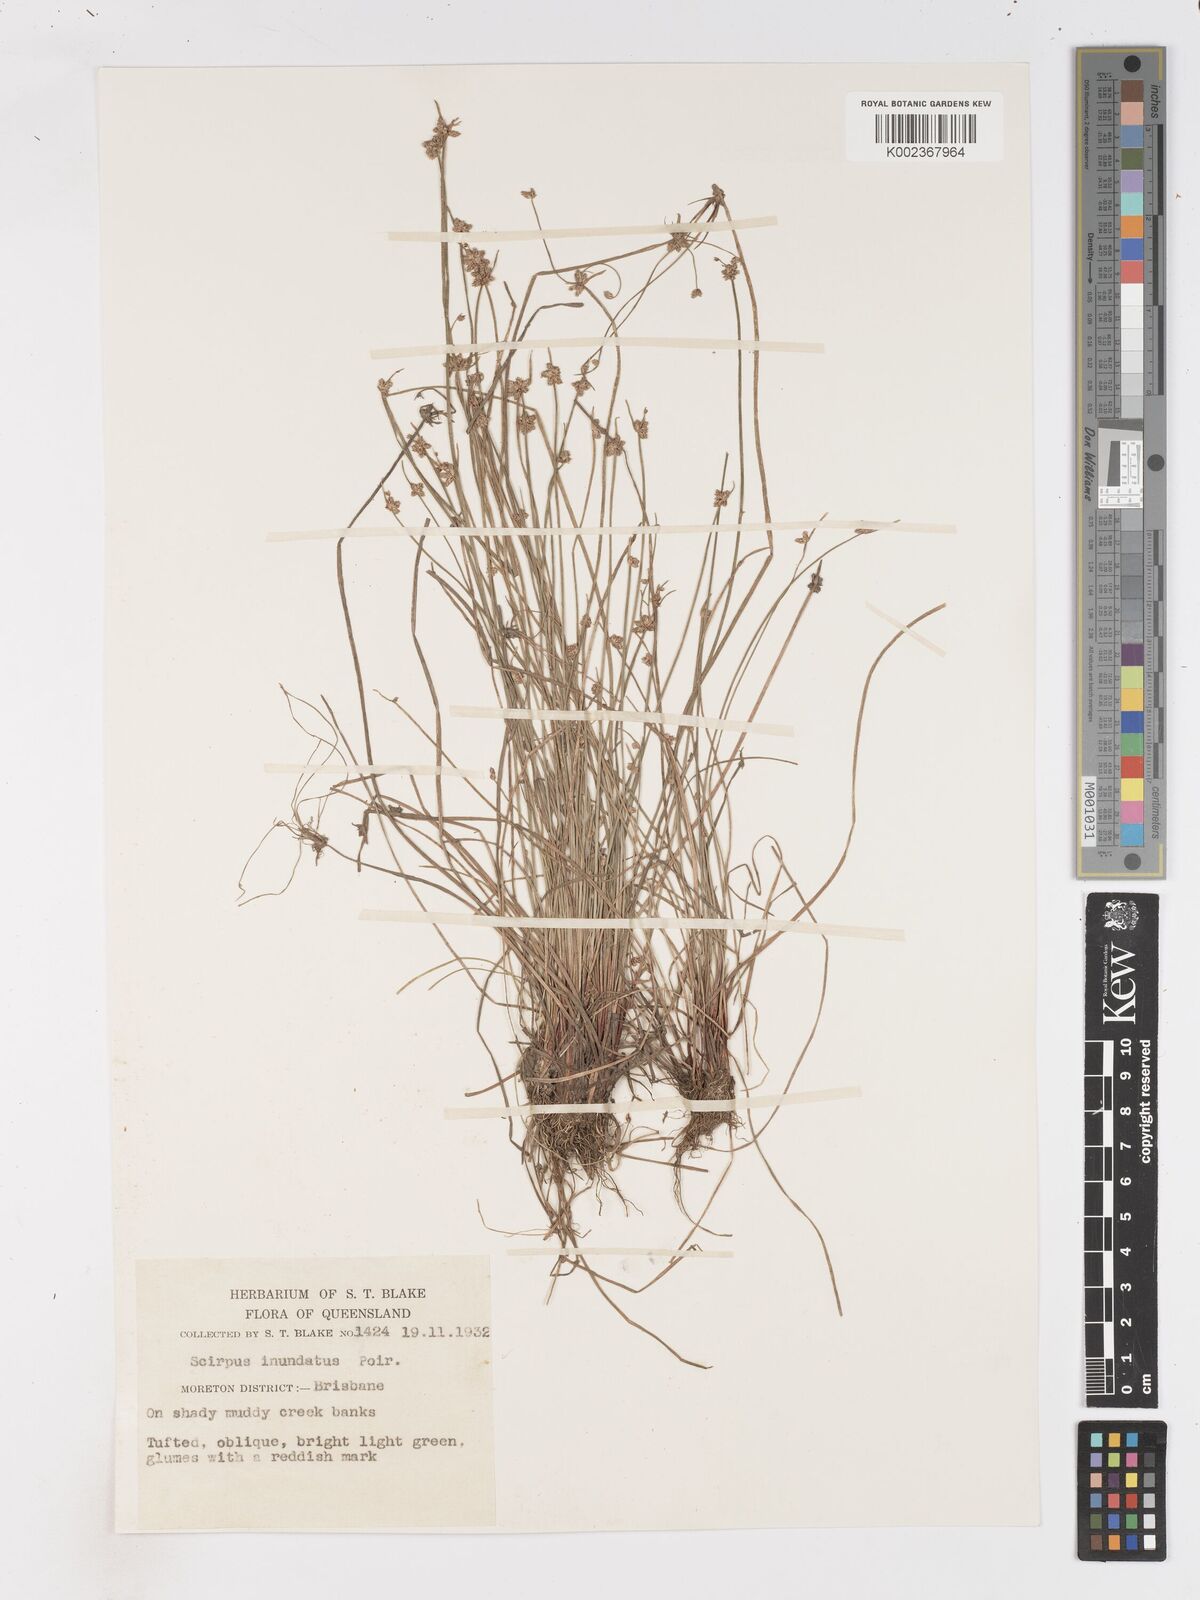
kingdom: Plantae
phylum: Tracheophyta
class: Liliopsida
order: Poales
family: Cyperaceae
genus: Isolepis
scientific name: Isolepis inundata
